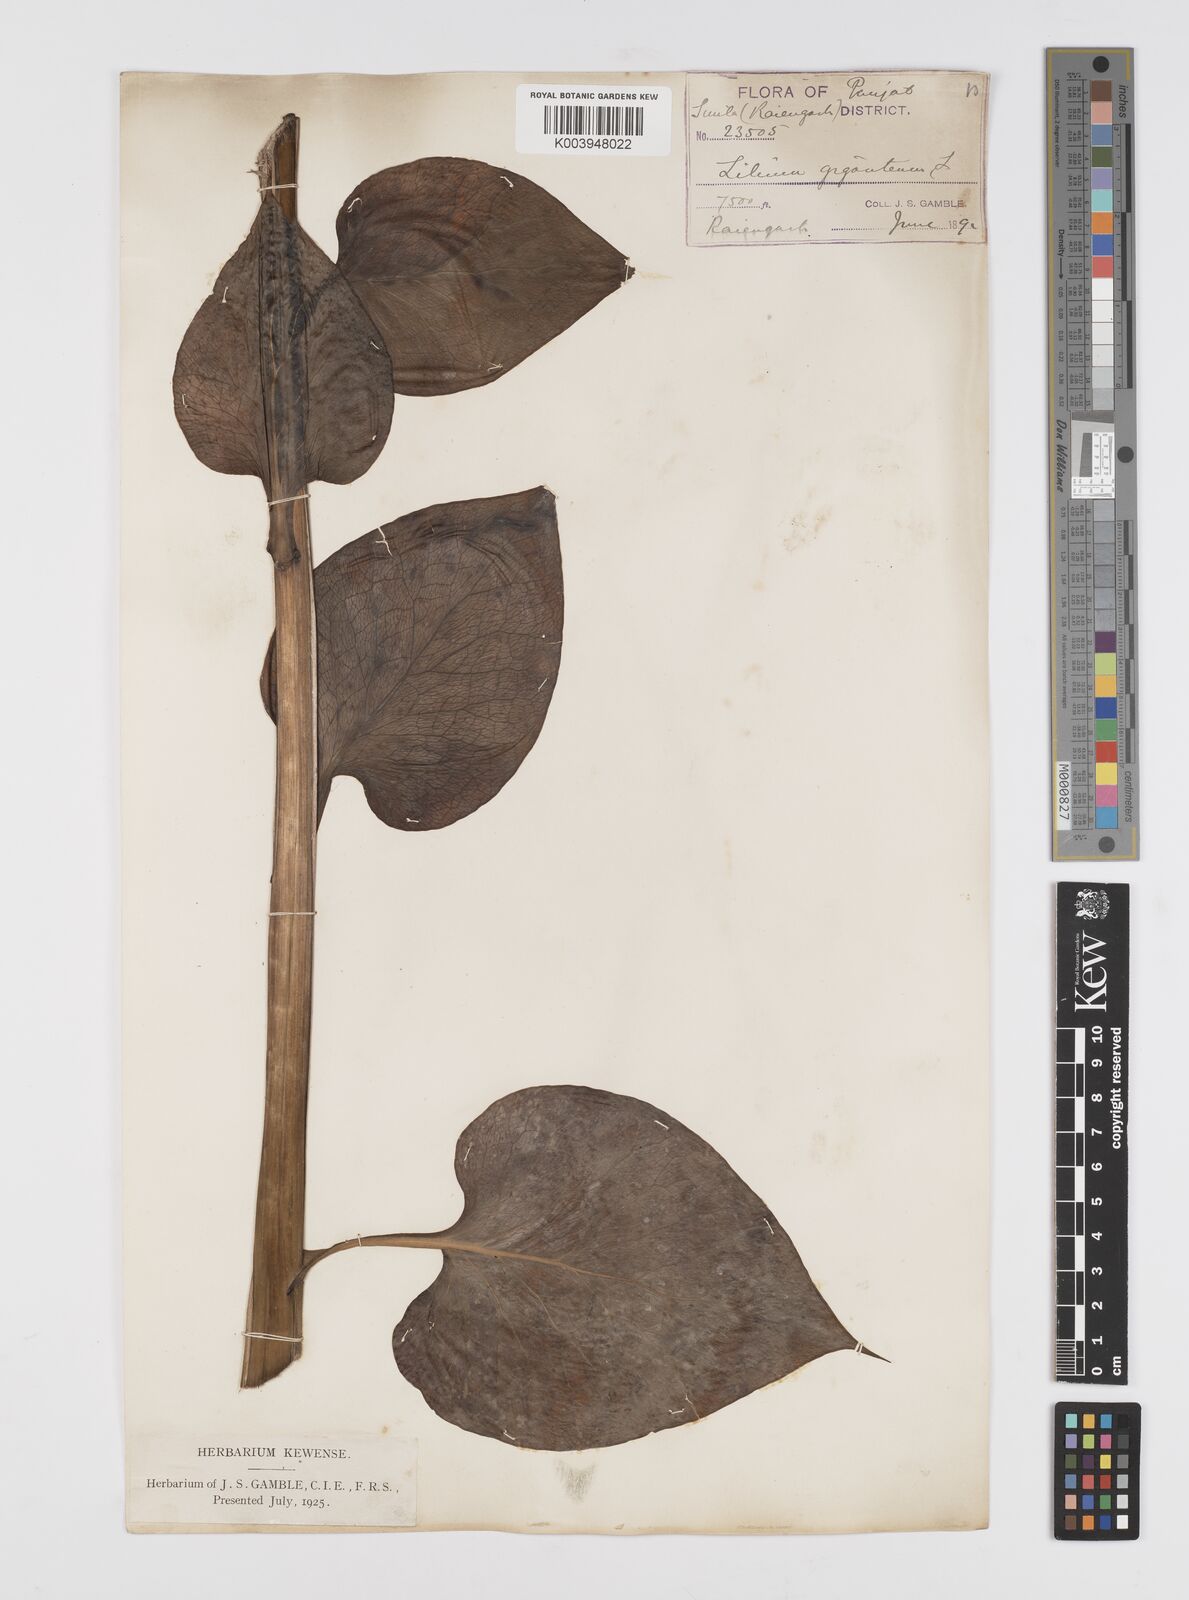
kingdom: Plantae
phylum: Tracheophyta
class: Liliopsida
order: Liliales
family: Liliaceae
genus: Cardiocrinum
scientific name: Cardiocrinum giganteum
